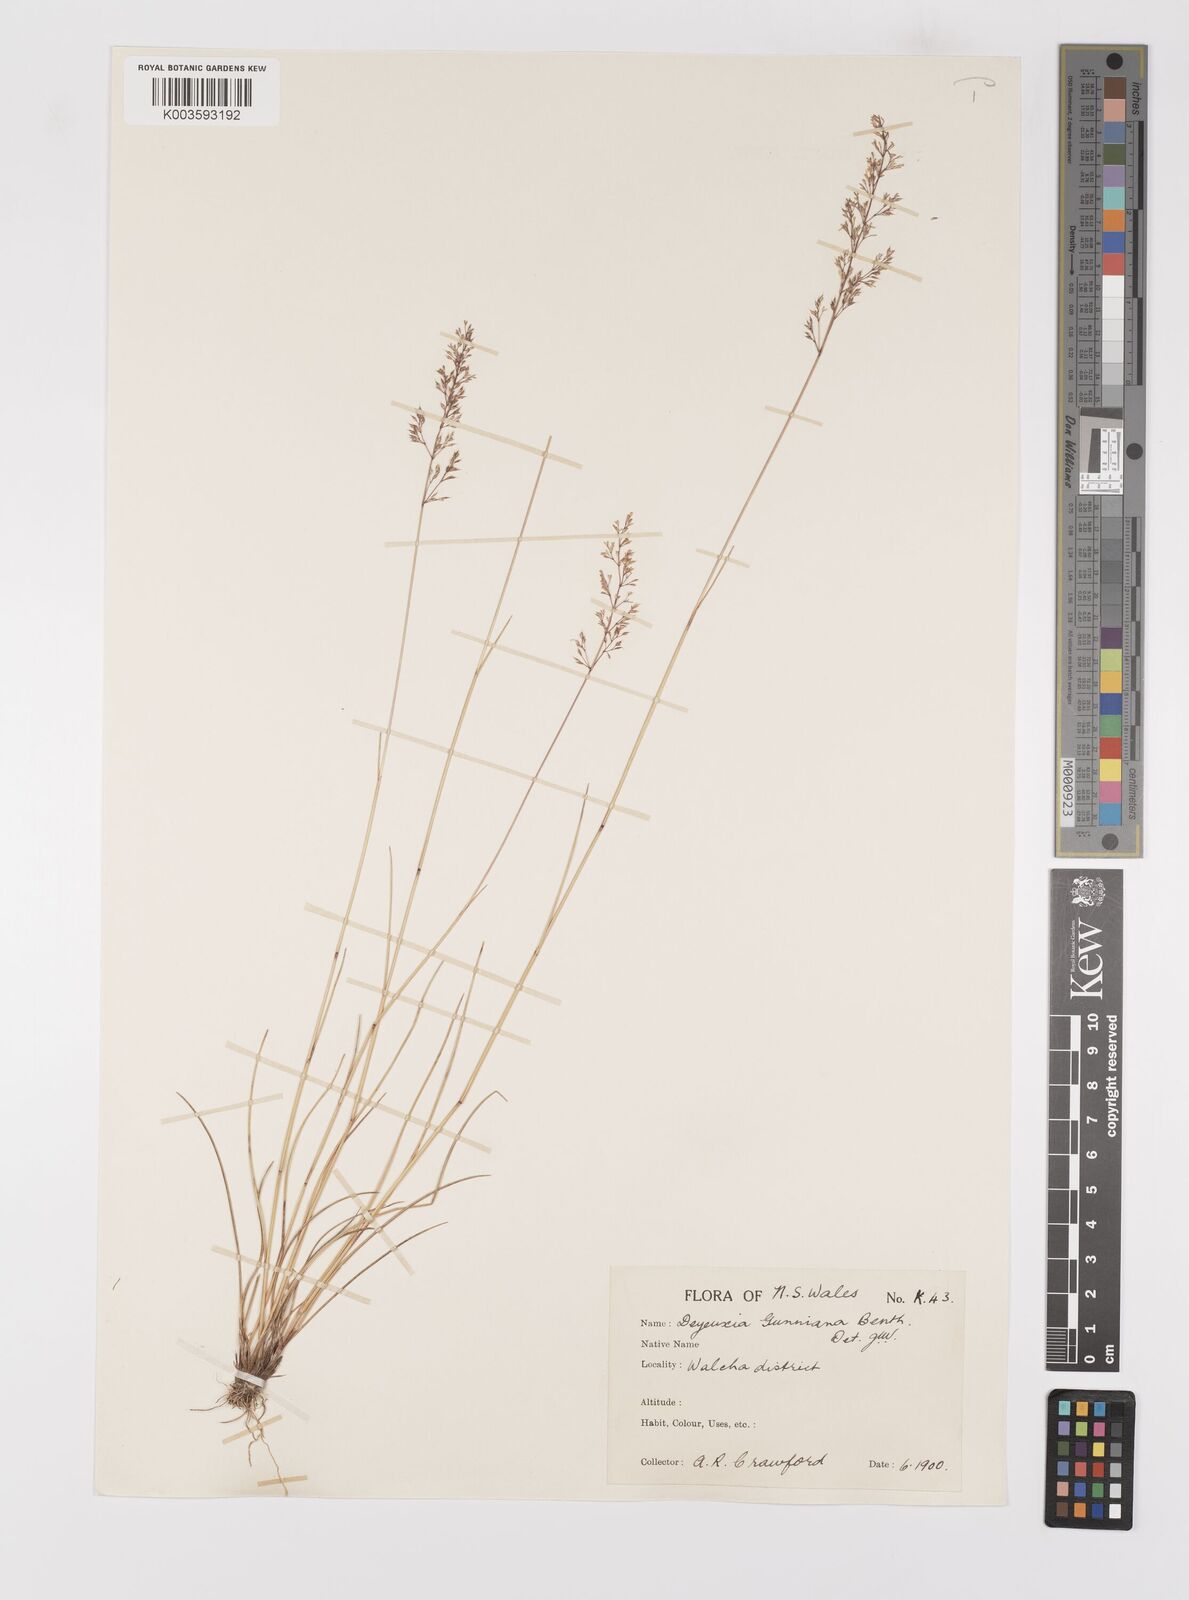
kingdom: Plantae
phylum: Tracheophyta
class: Liliopsida
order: Poales
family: Poaceae
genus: Ancistragrostis
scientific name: Ancistragrostis
